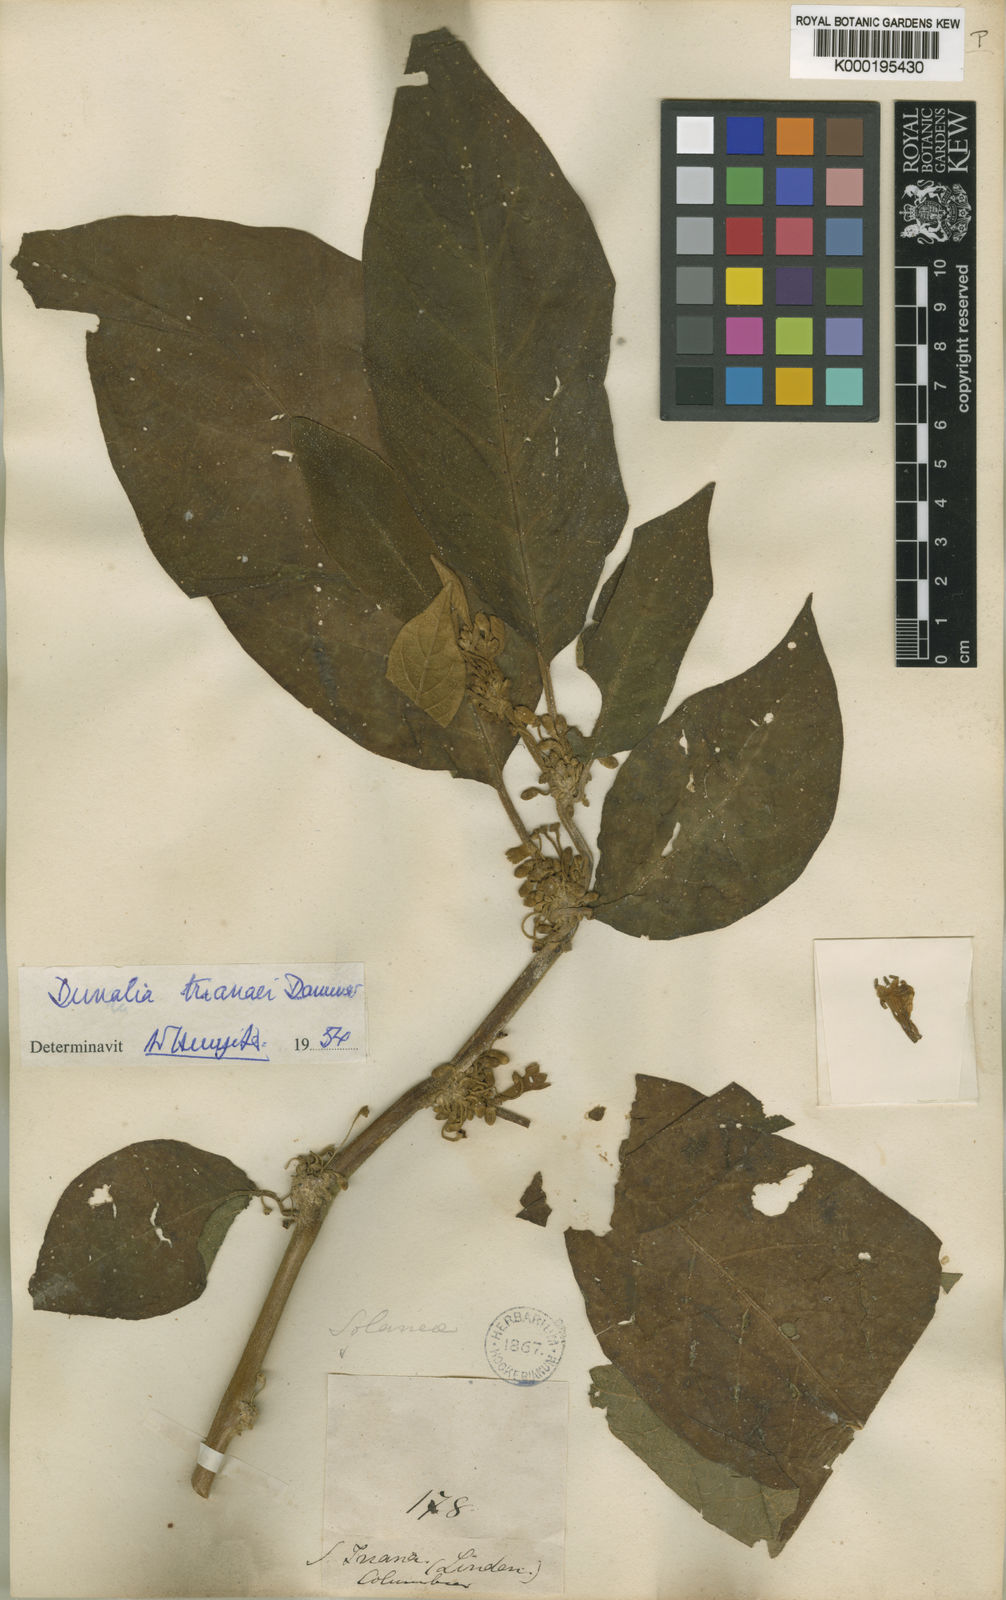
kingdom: Plantae
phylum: Tracheophyta
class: Magnoliopsida
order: Solanales
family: Solanaceae
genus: Saracha
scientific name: Saracha nigribaccata
